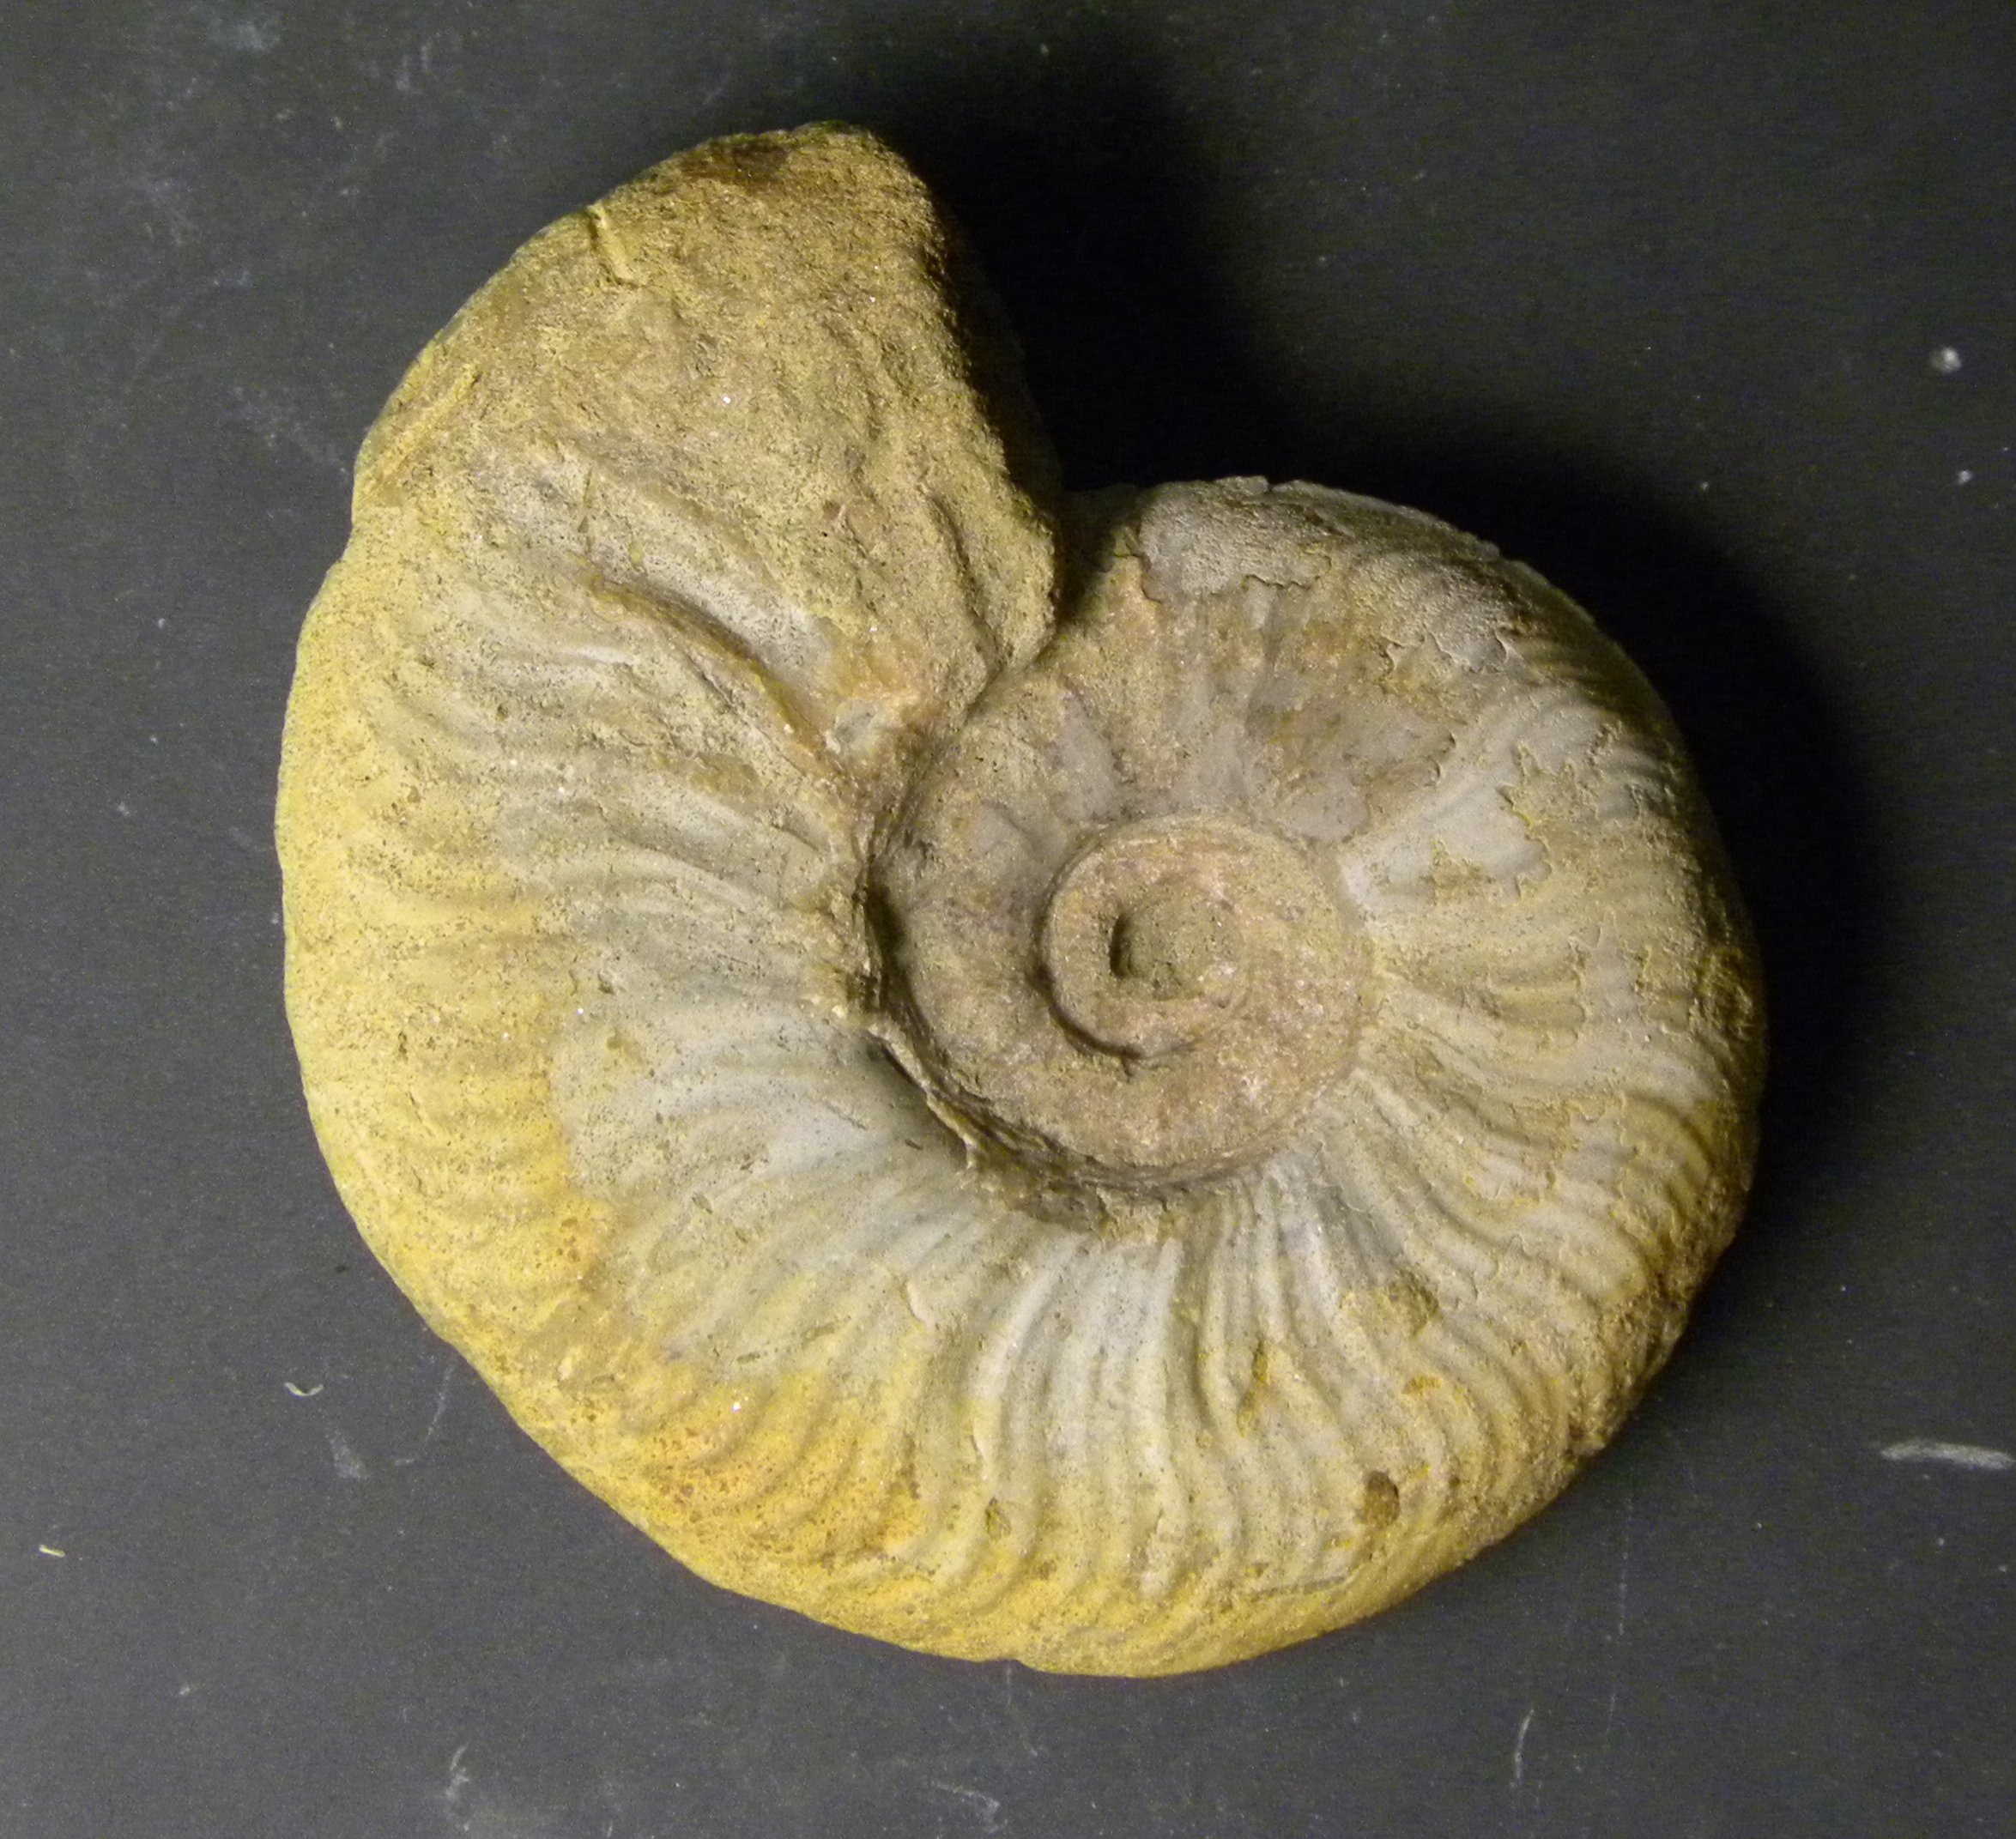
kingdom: Animalia
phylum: Mollusca
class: Cephalopoda
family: Hildoceratidae
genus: Pleydellia
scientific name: Pleydellia falcifer
